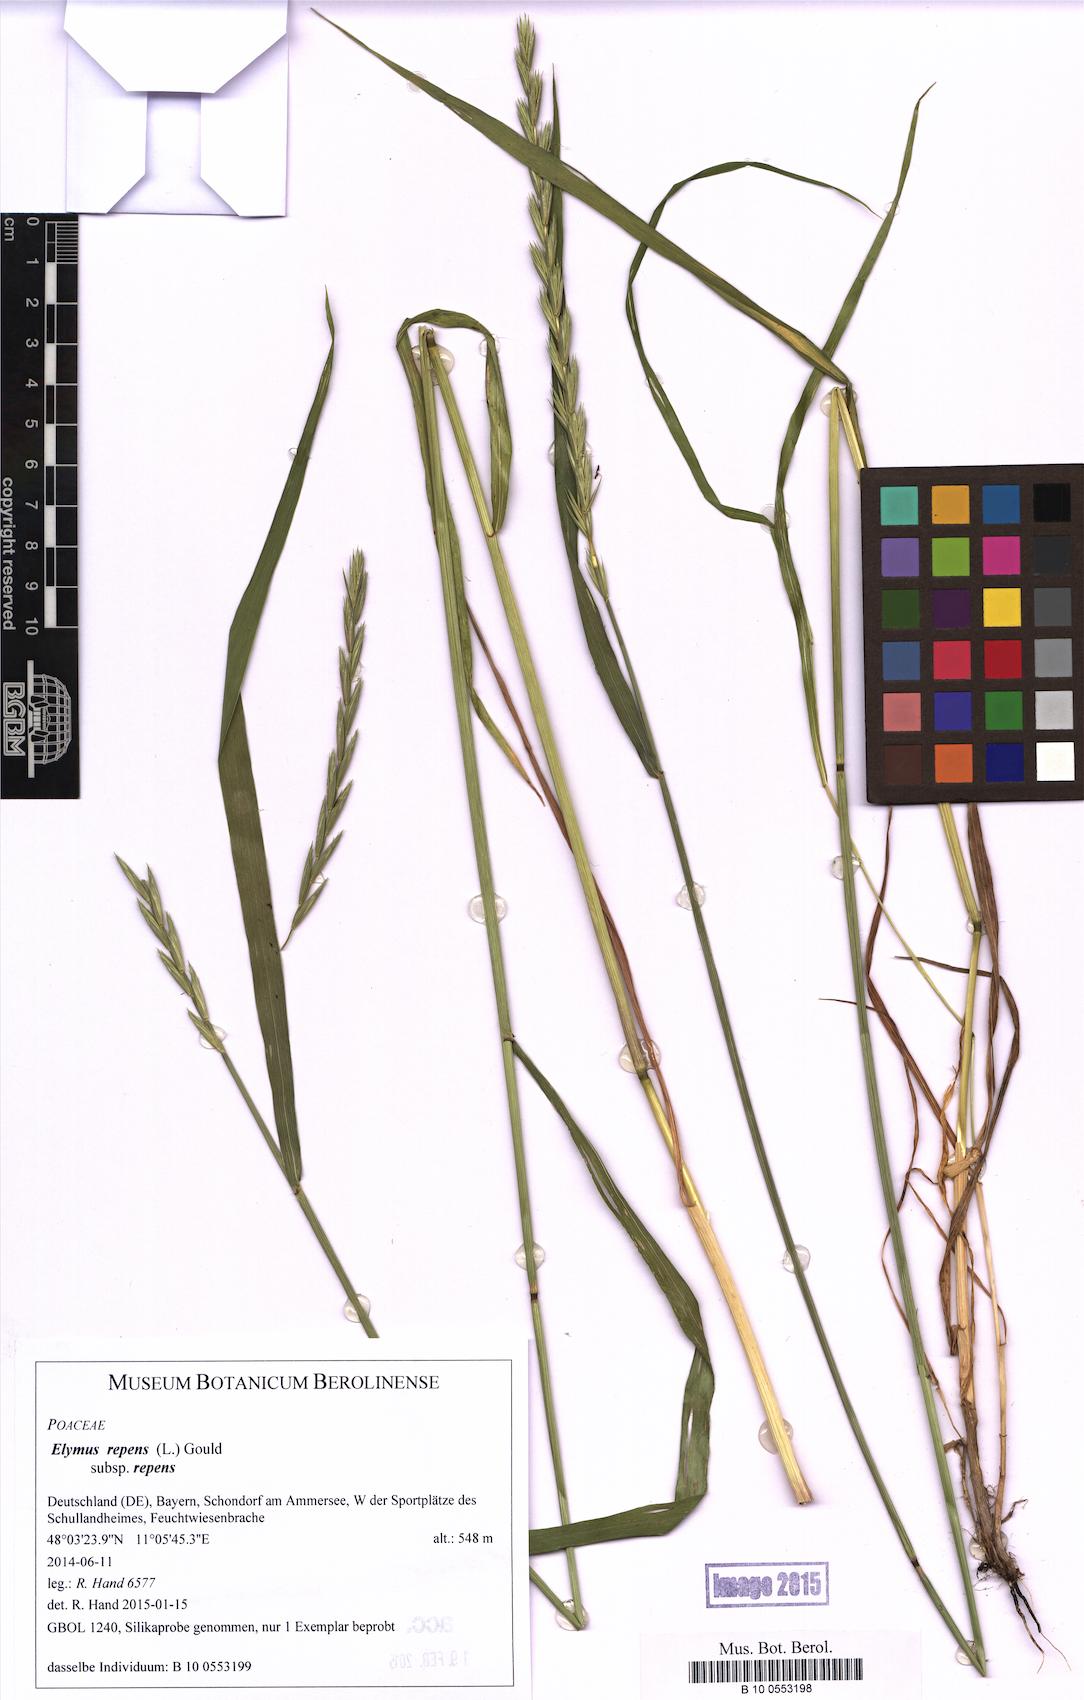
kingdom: Plantae
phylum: Tracheophyta
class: Liliopsida
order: Poales
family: Poaceae
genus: Elymus
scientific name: Elymus repens
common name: Quackgrass
